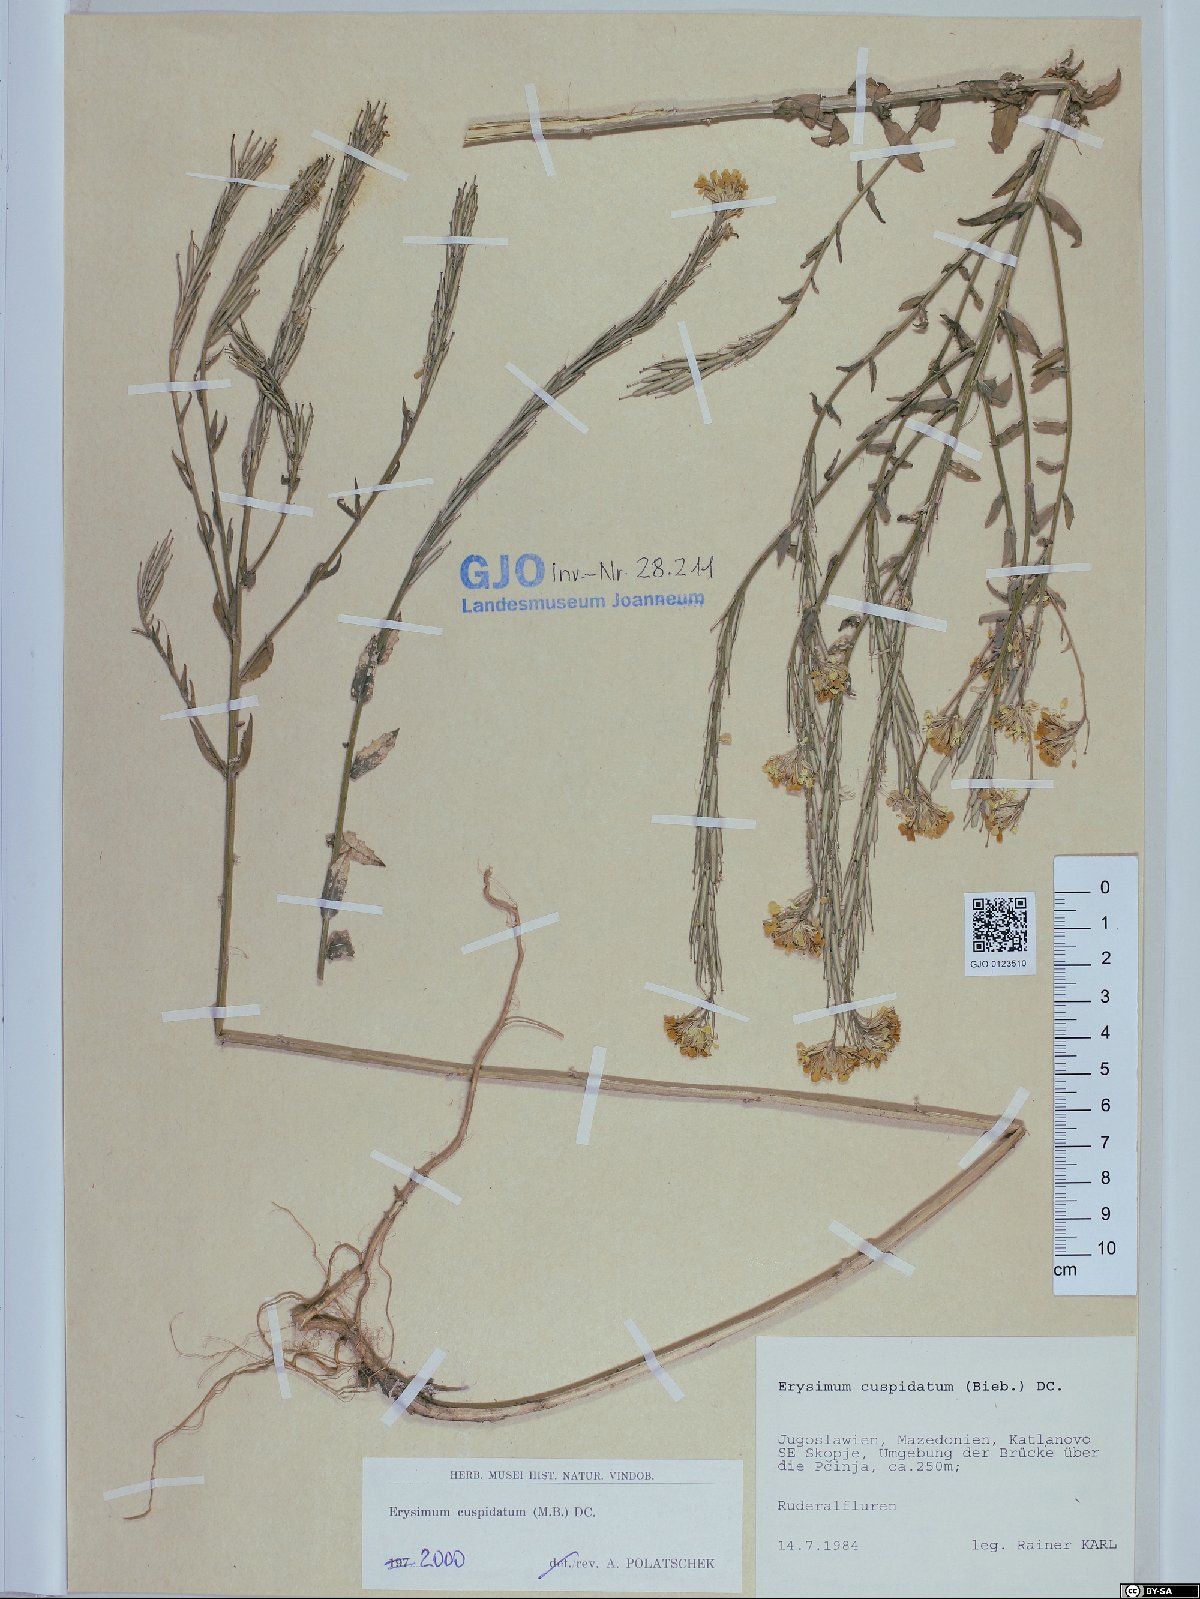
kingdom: Plantae
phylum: Tracheophyta
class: Magnoliopsida
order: Brassicales
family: Brassicaceae
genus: Erysimum
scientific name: Erysimum cuspidatum
